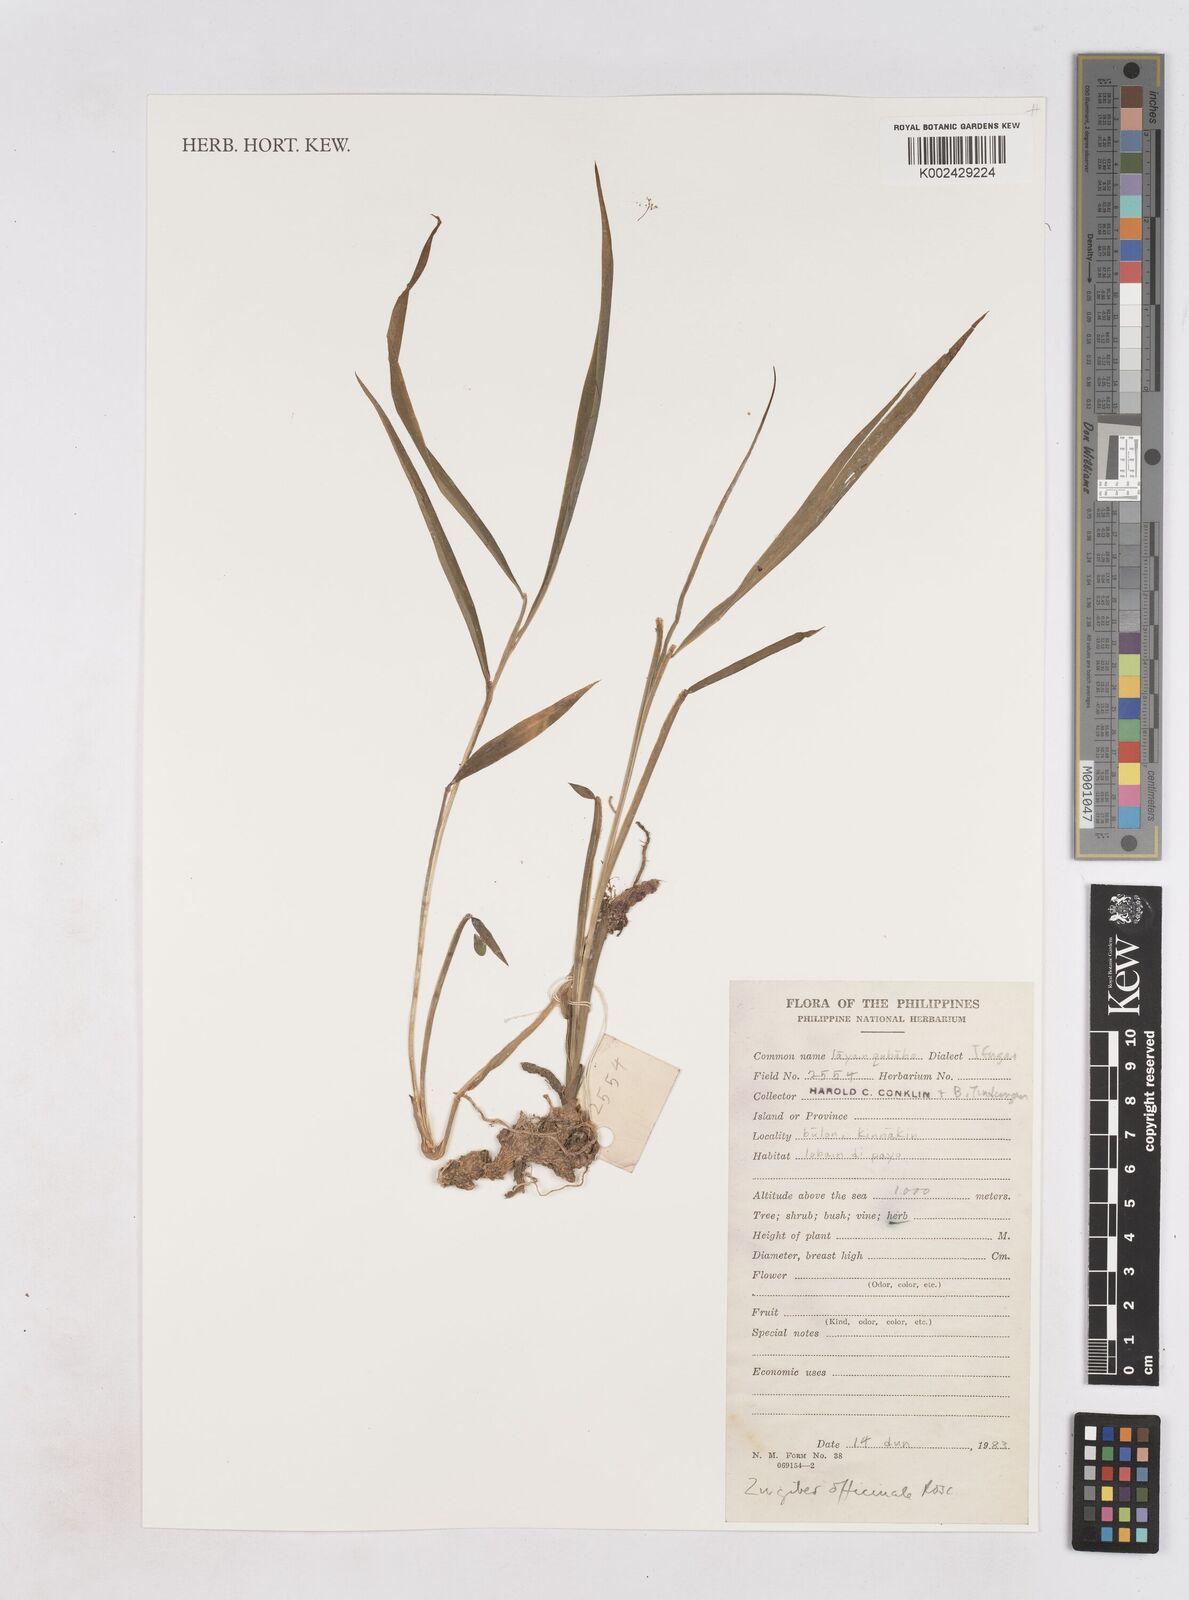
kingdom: Plantae
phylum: Tracheophyta
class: Liliopsida
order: Zingiberales
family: Zingiberaceae
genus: Zingiber
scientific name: Zingiber officinale
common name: Ginger
